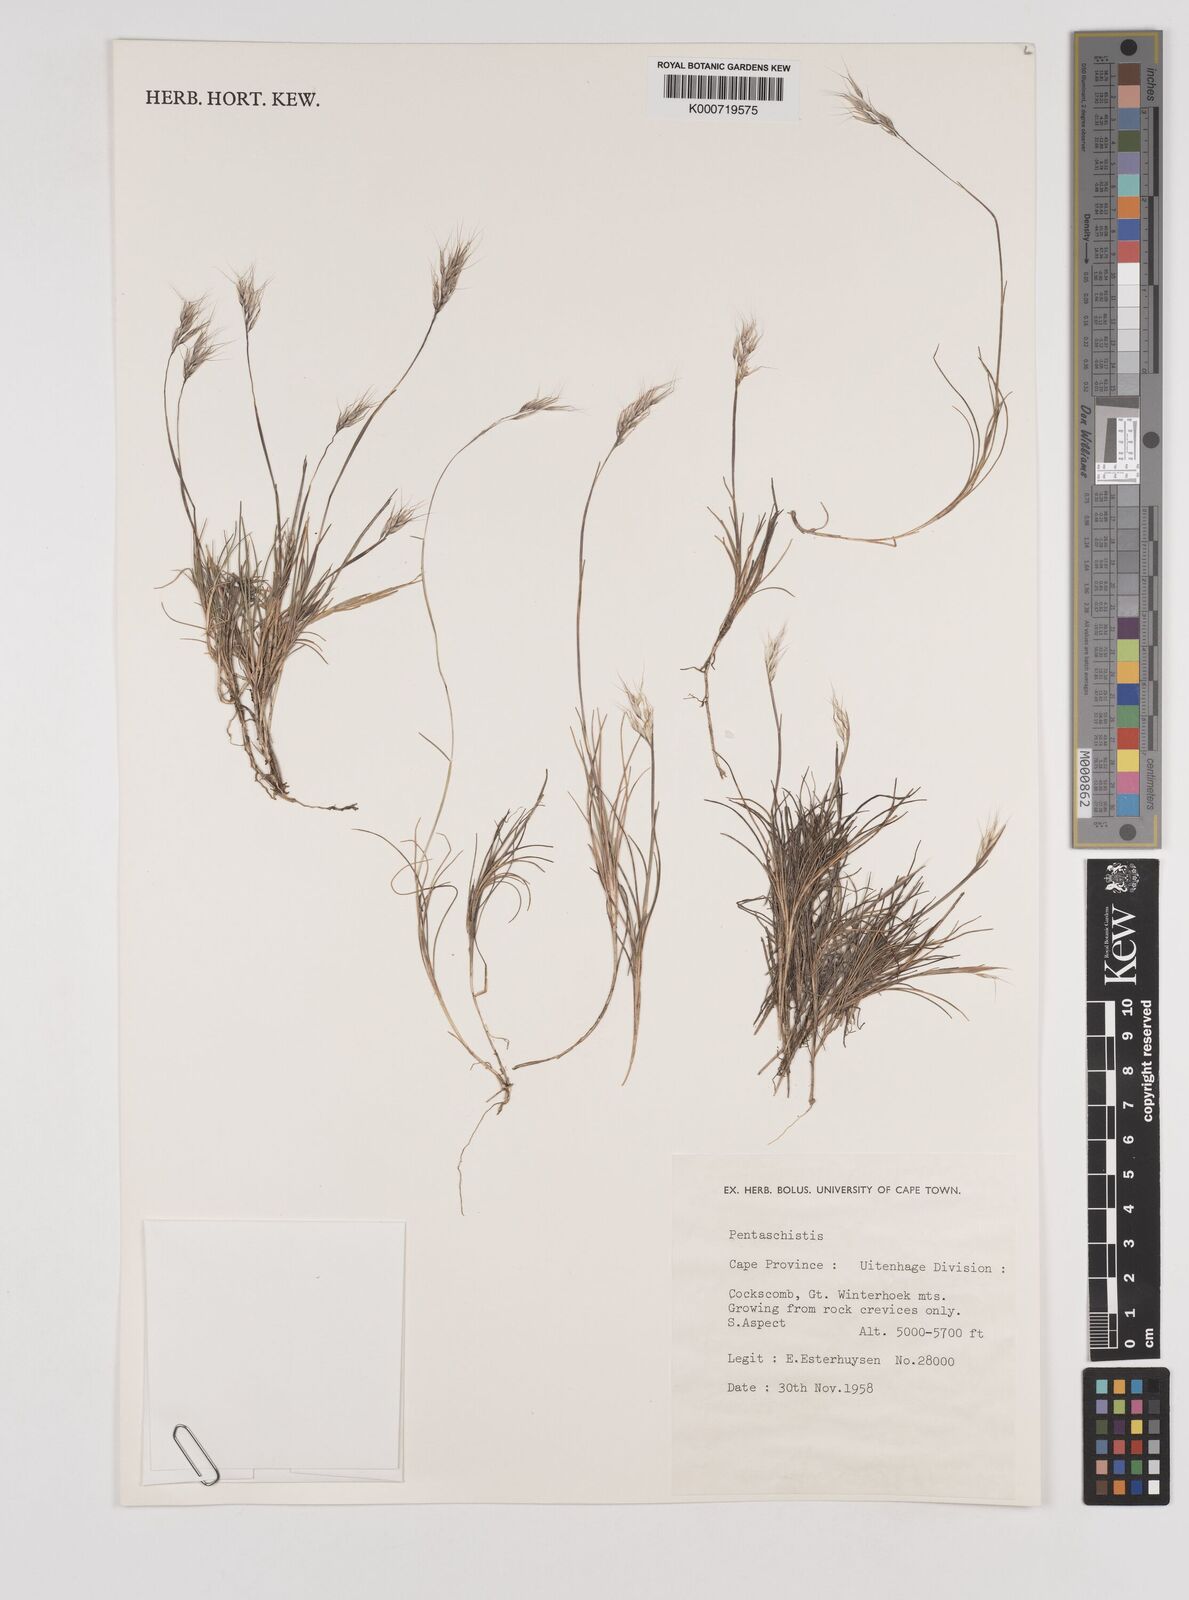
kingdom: Plantae
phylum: Tracheophyta
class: Liliopsida
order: Poales
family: Poaceae
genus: Pentameris
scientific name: Pentameris rigidissima
